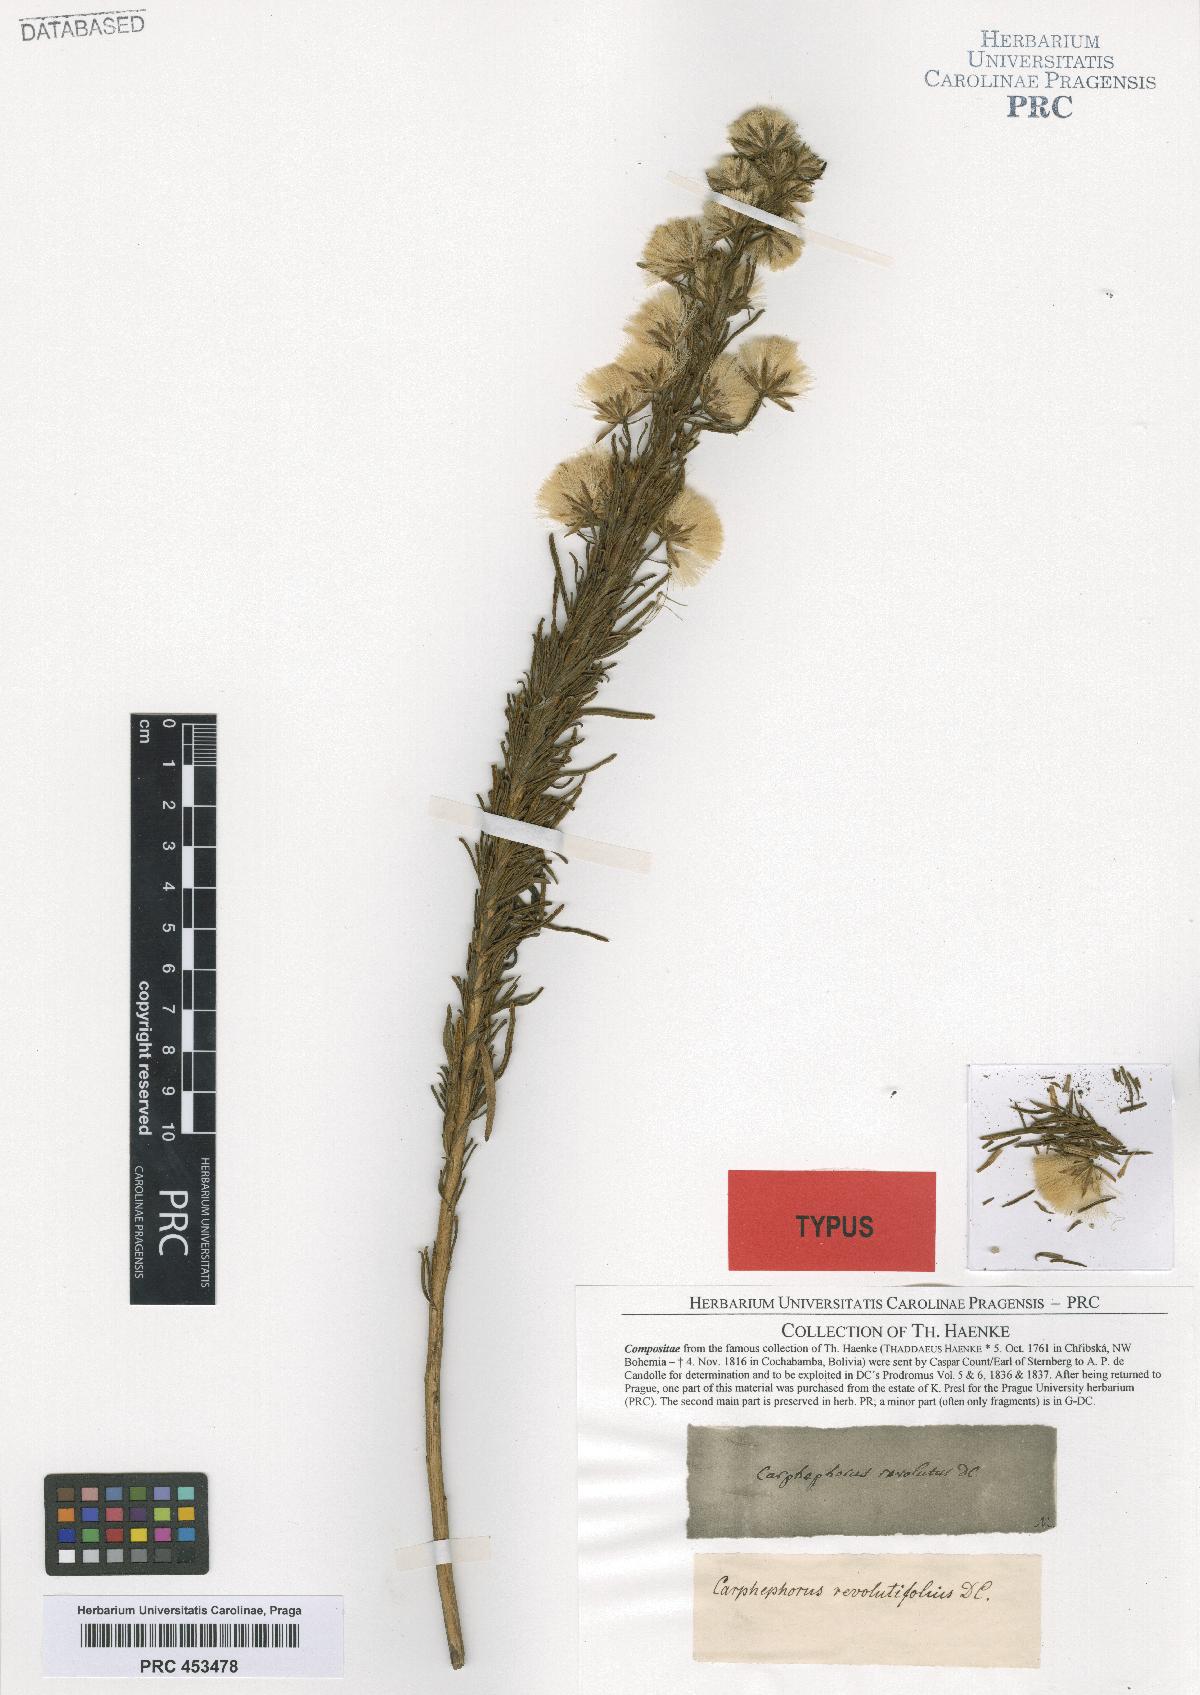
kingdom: Plantae
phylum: Tracheophyta
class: Magnoliopsida
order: Asterales
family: Asteraceae
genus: Jungia
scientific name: Jungia revoluta
